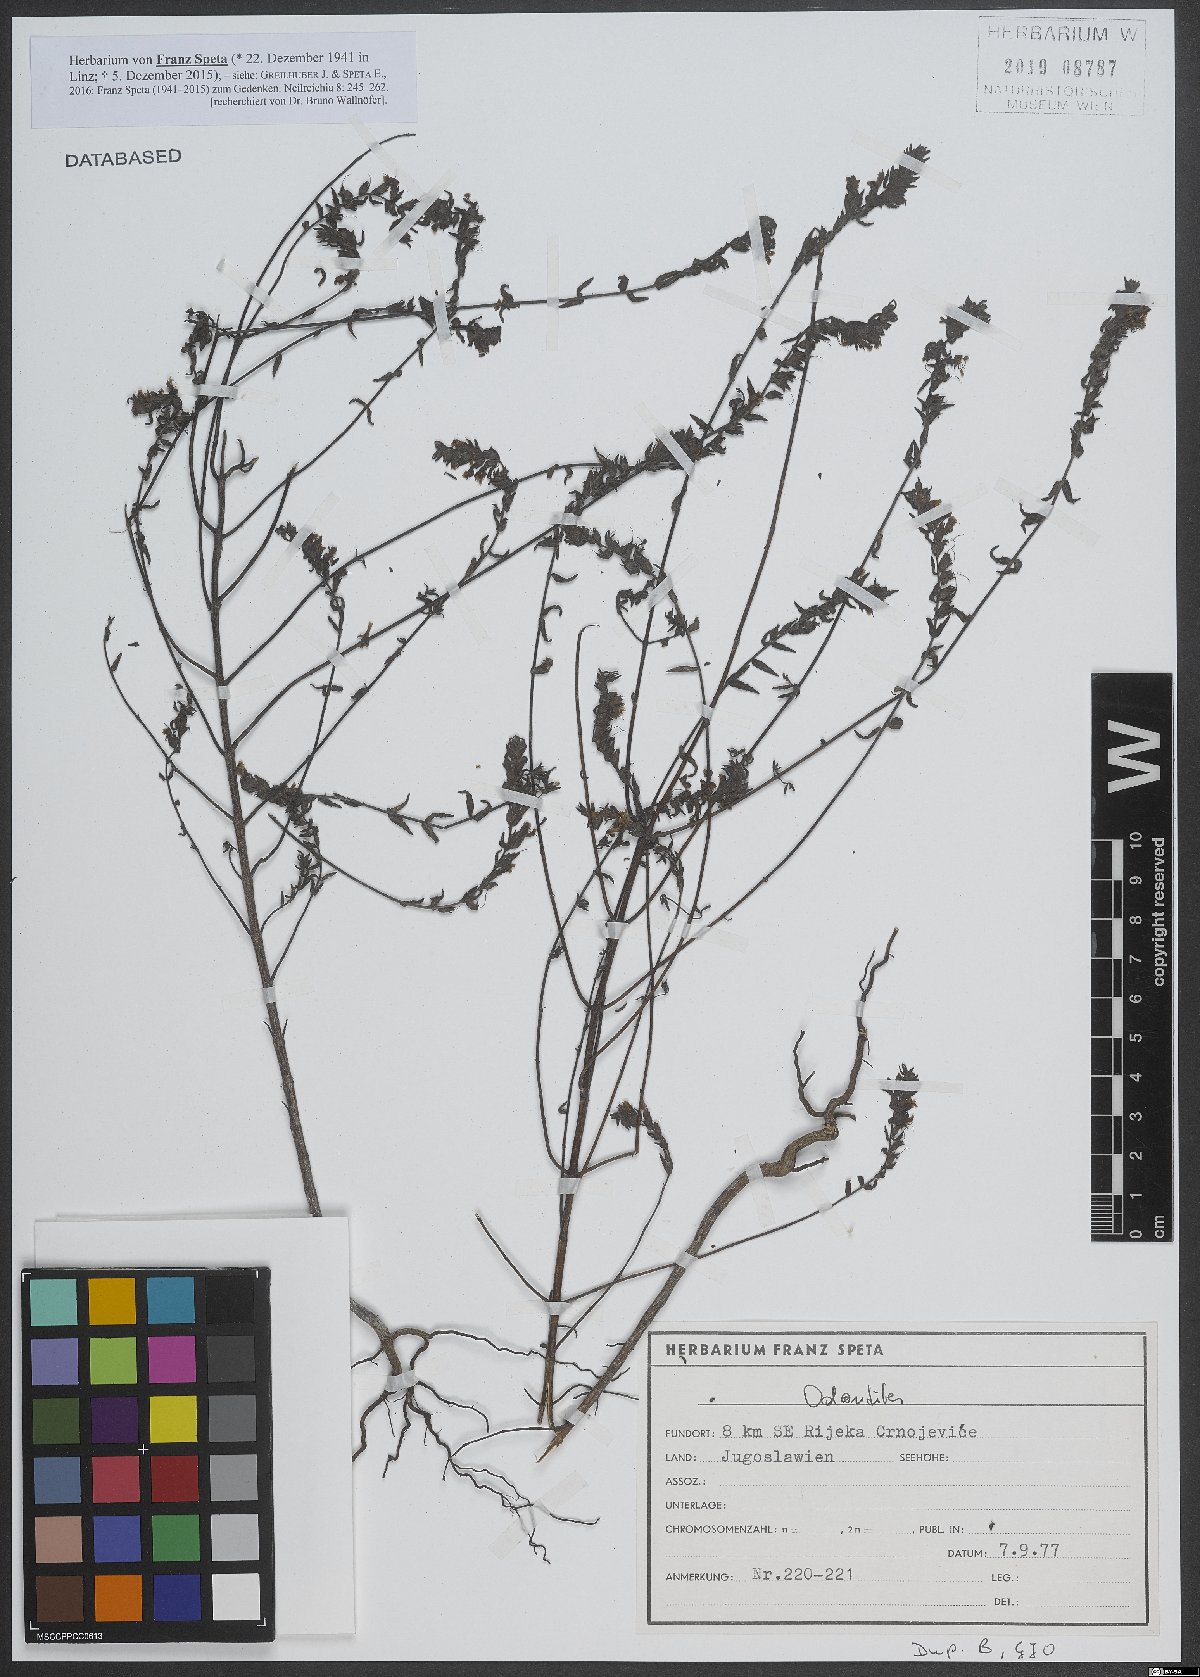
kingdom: Plantae
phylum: Tracheophyta
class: Magnoliopsida
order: Lamiales
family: Orobanchaceae
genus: Odontites
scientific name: Odontites
